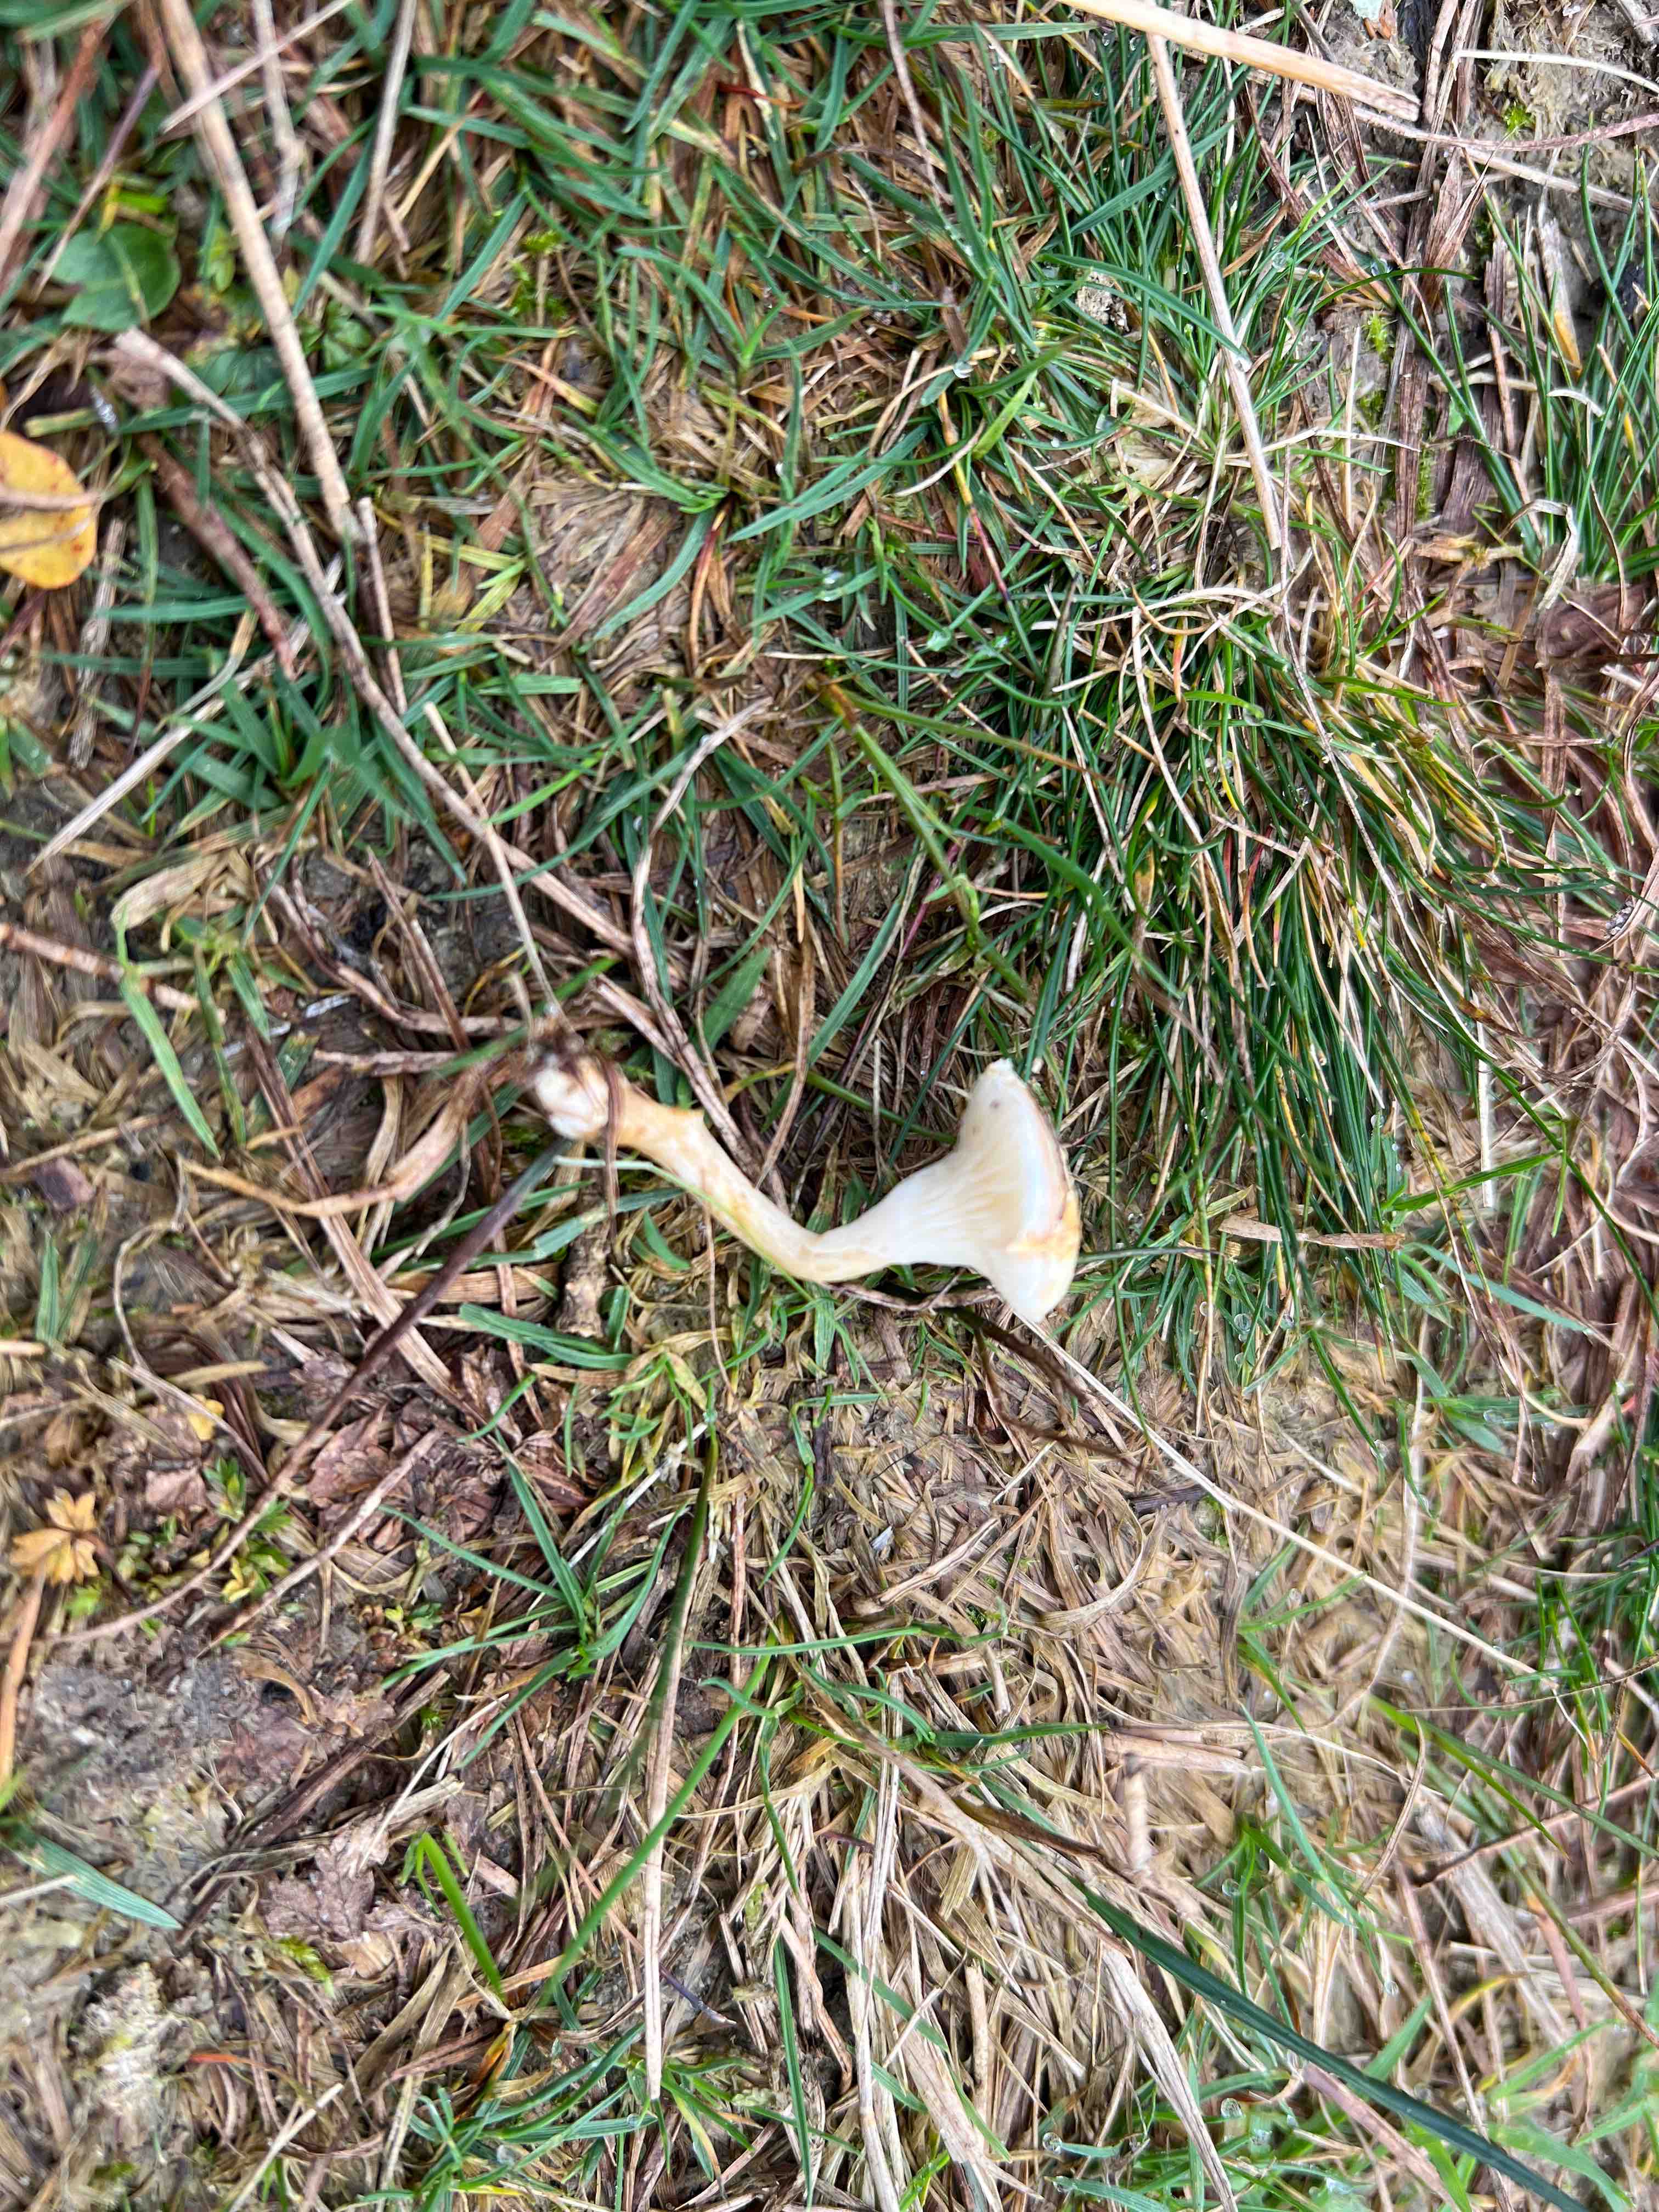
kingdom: Fungi
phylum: Basidiomycota
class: Agaricomycetes
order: Boletales
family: Hygrophoropsidaceae
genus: Hygrophoropsis
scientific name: Hygrophoropsis pallida
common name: bleg orangekantarel
